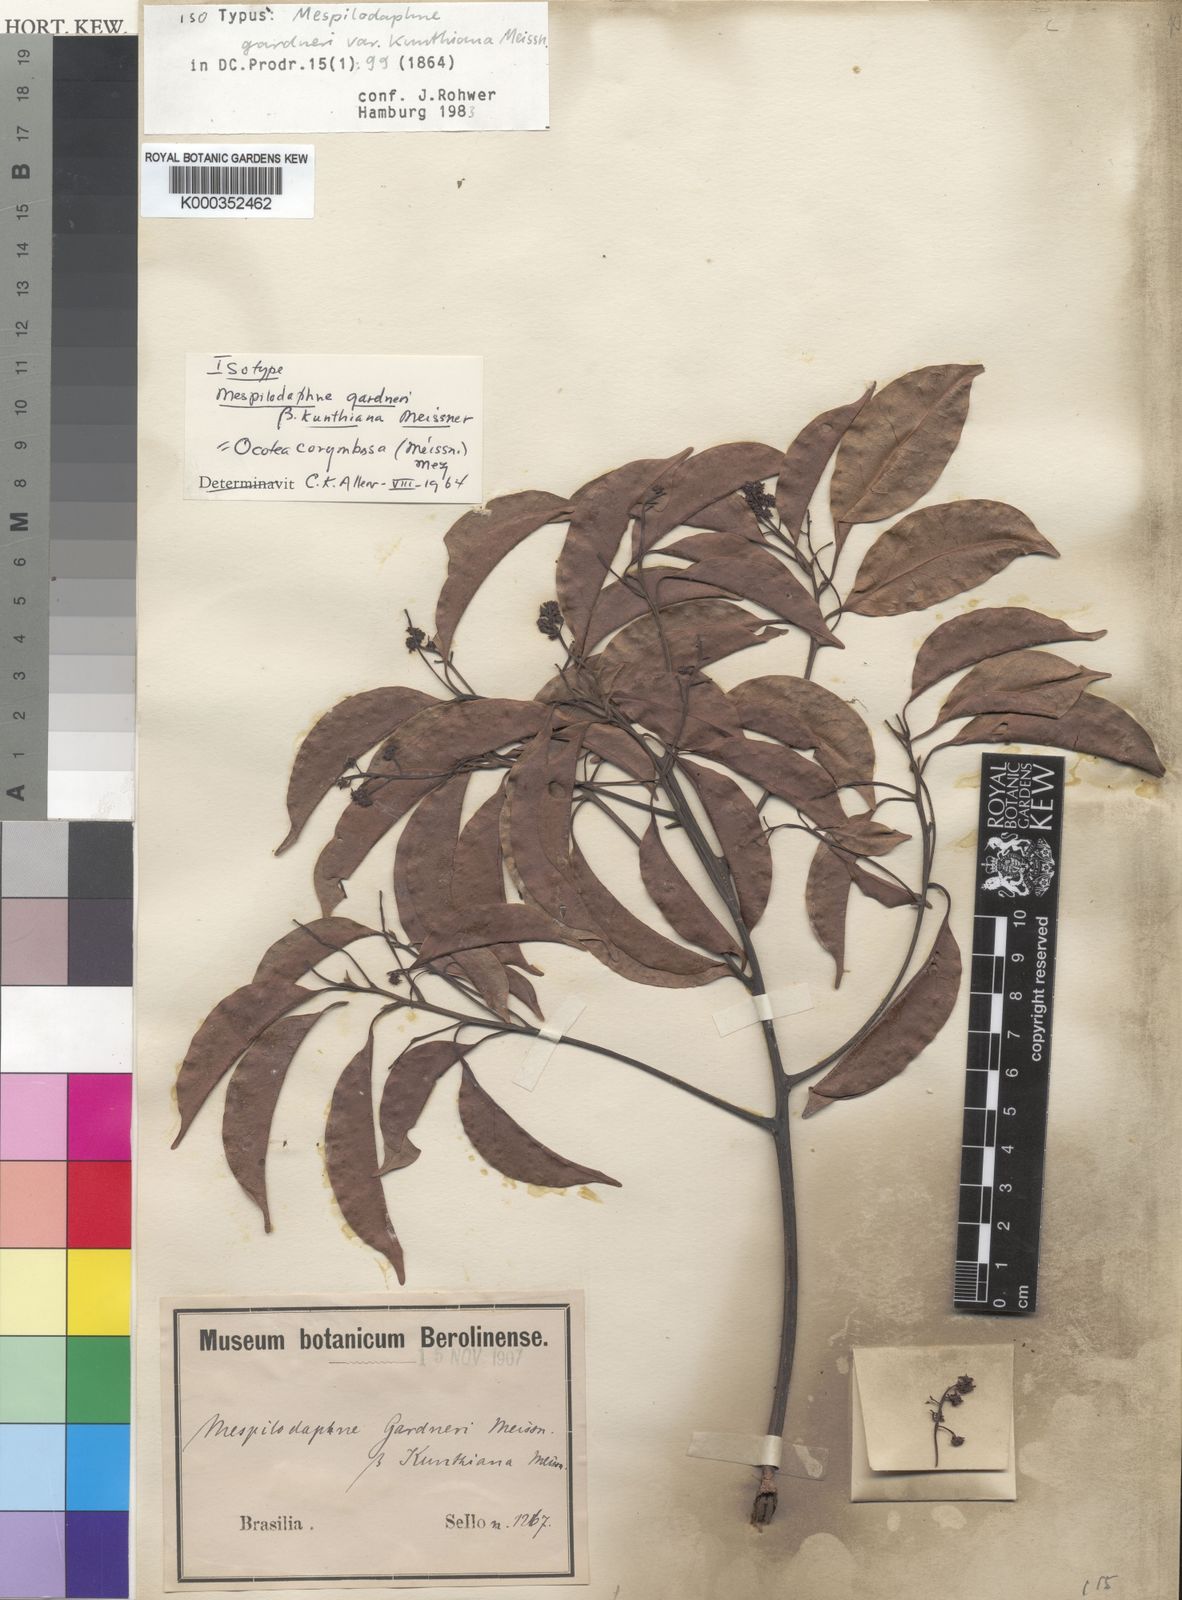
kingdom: Plantae
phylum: Tracheophyta
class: Magnoliopsida
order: Laurales
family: Lauraceae
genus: Mespilodaphne
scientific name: Mespilodaphne corymbosa
